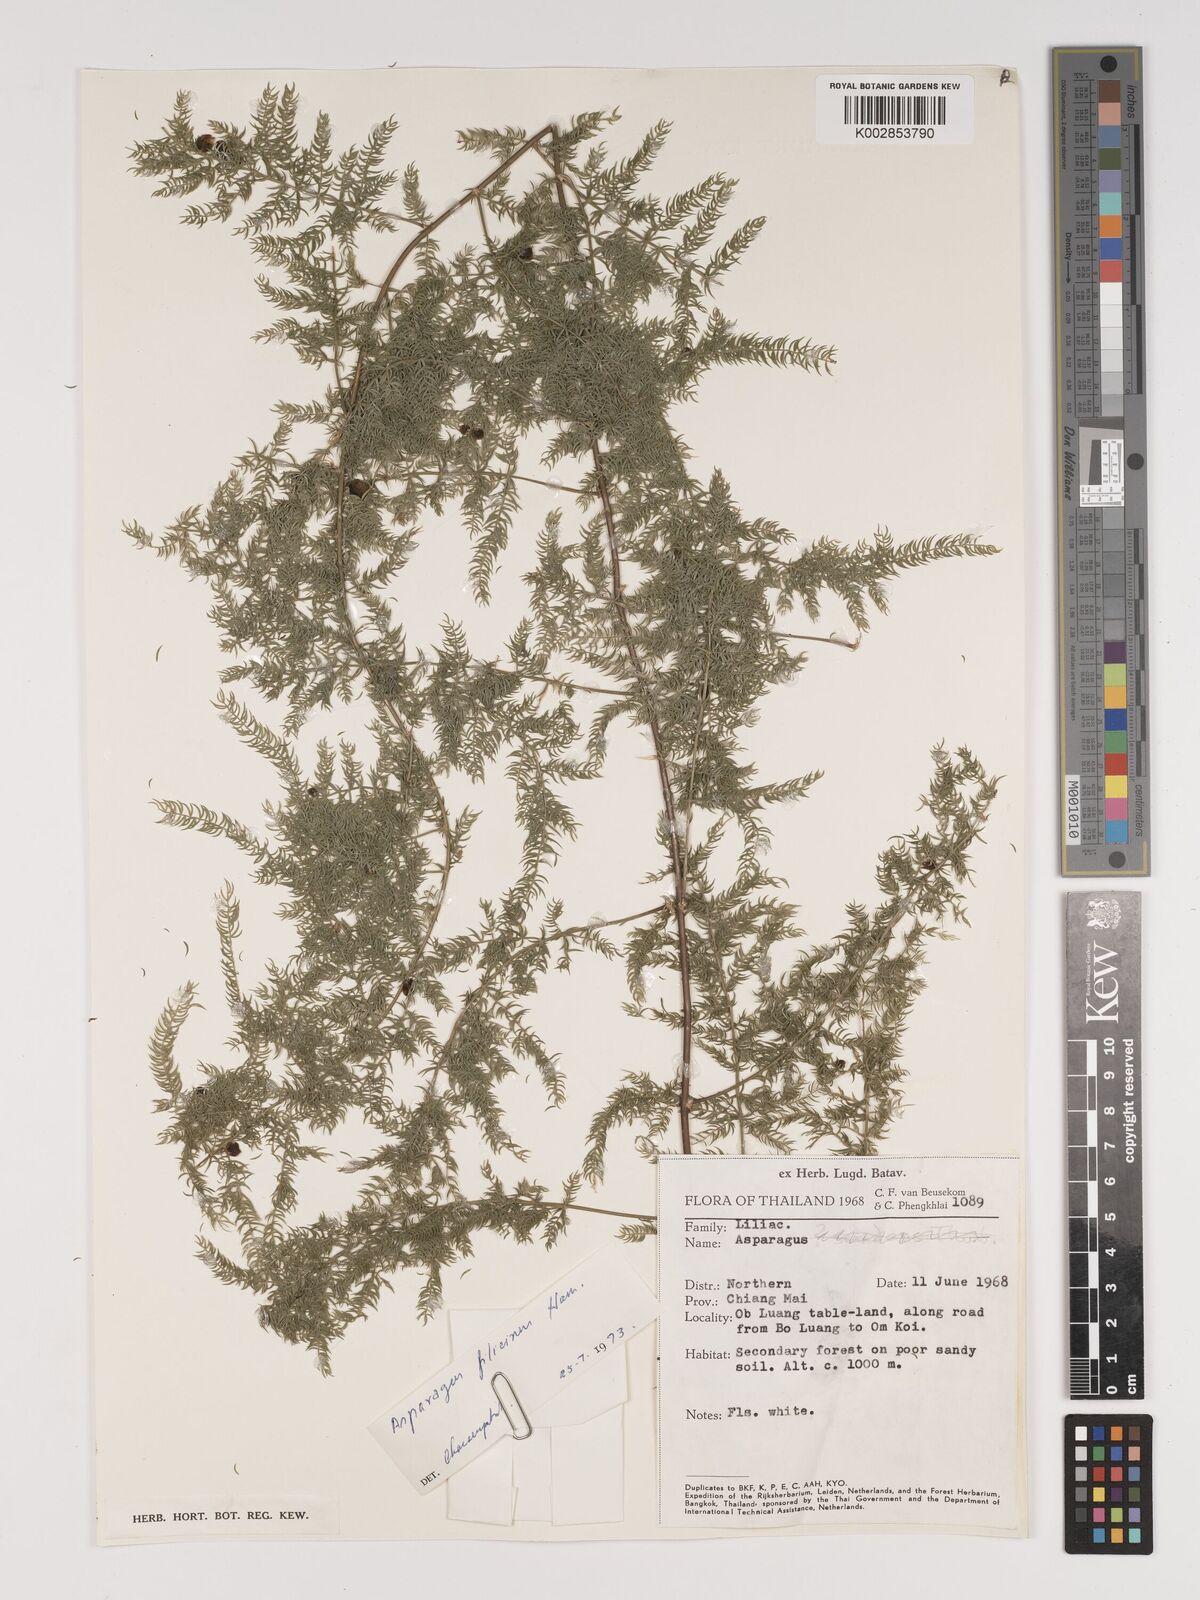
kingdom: Plantae
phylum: Tracheophyta
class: Liliopsida
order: Asparagales
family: Asparagaceae
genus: Asparagus
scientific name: Asparagus filicinus
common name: Fern asparagus
